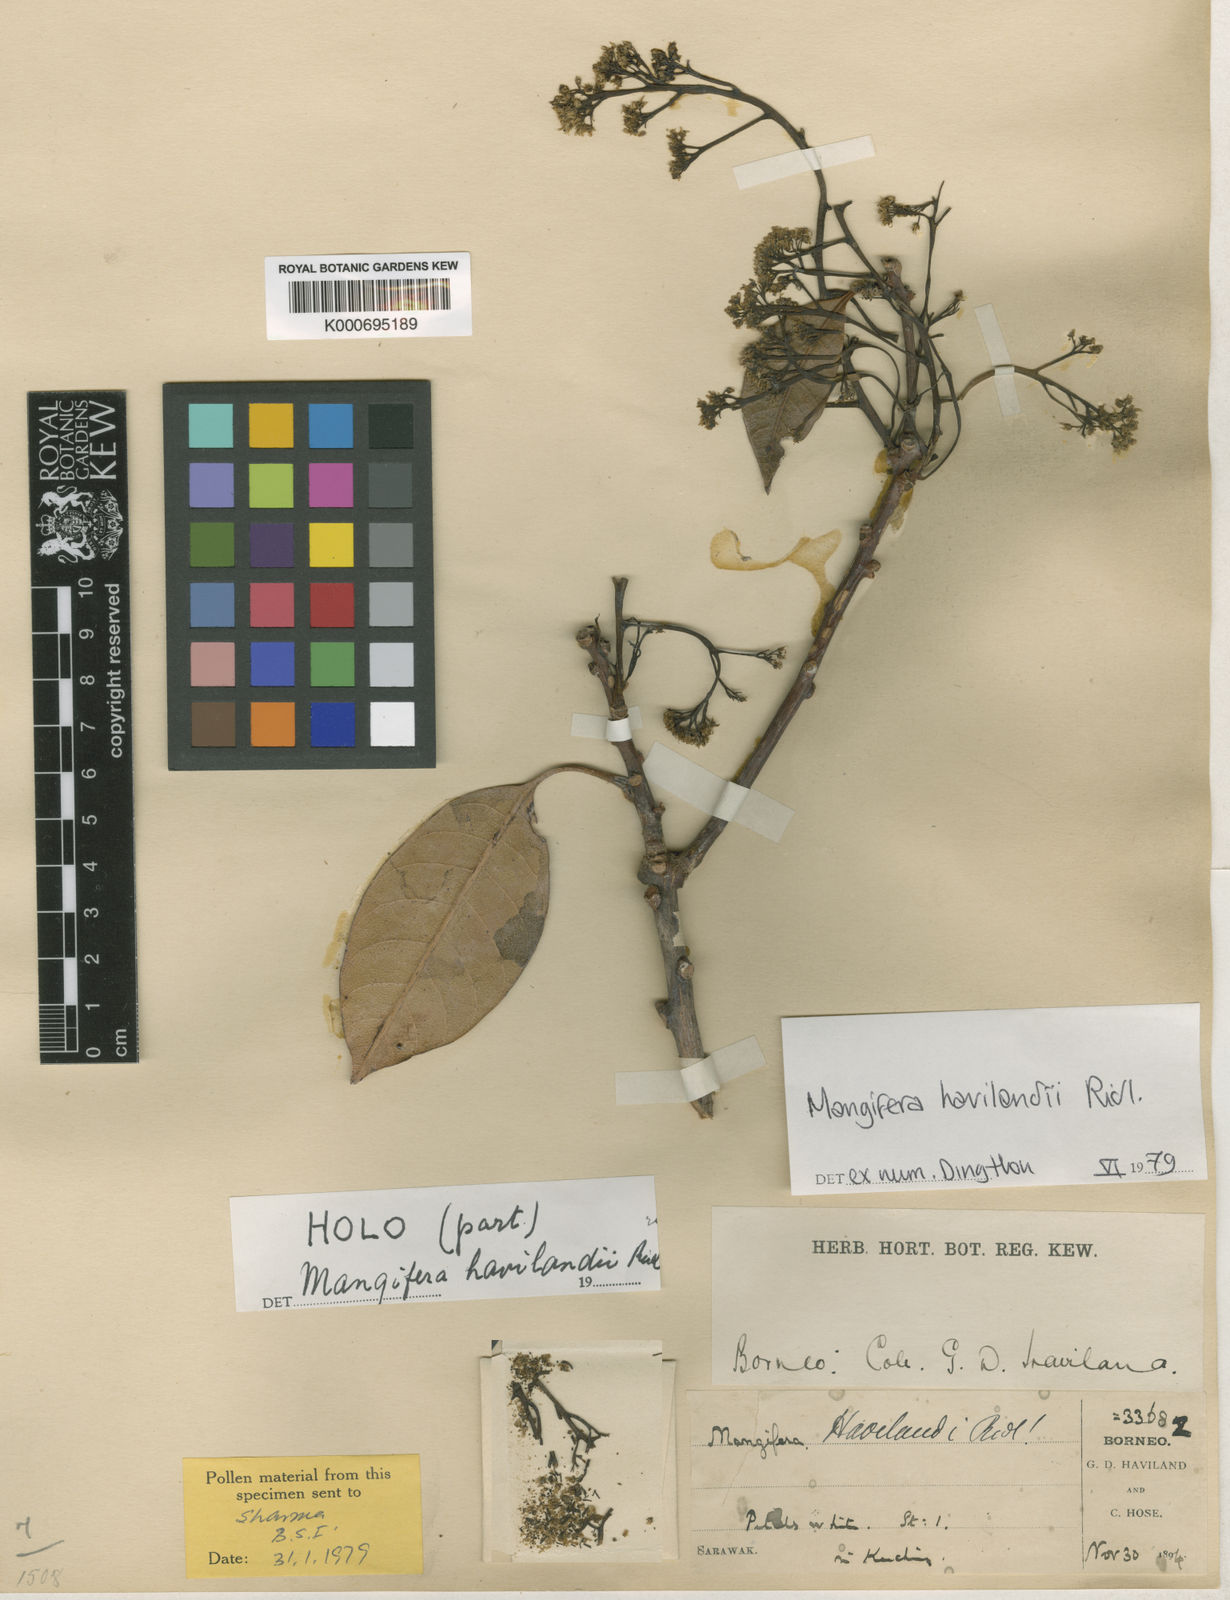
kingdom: Plantae
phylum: Tracheophyta
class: Magnoliopsida
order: Sapindales
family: Anacardiaceae
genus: Mangifera
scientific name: Mangifera havilandii
